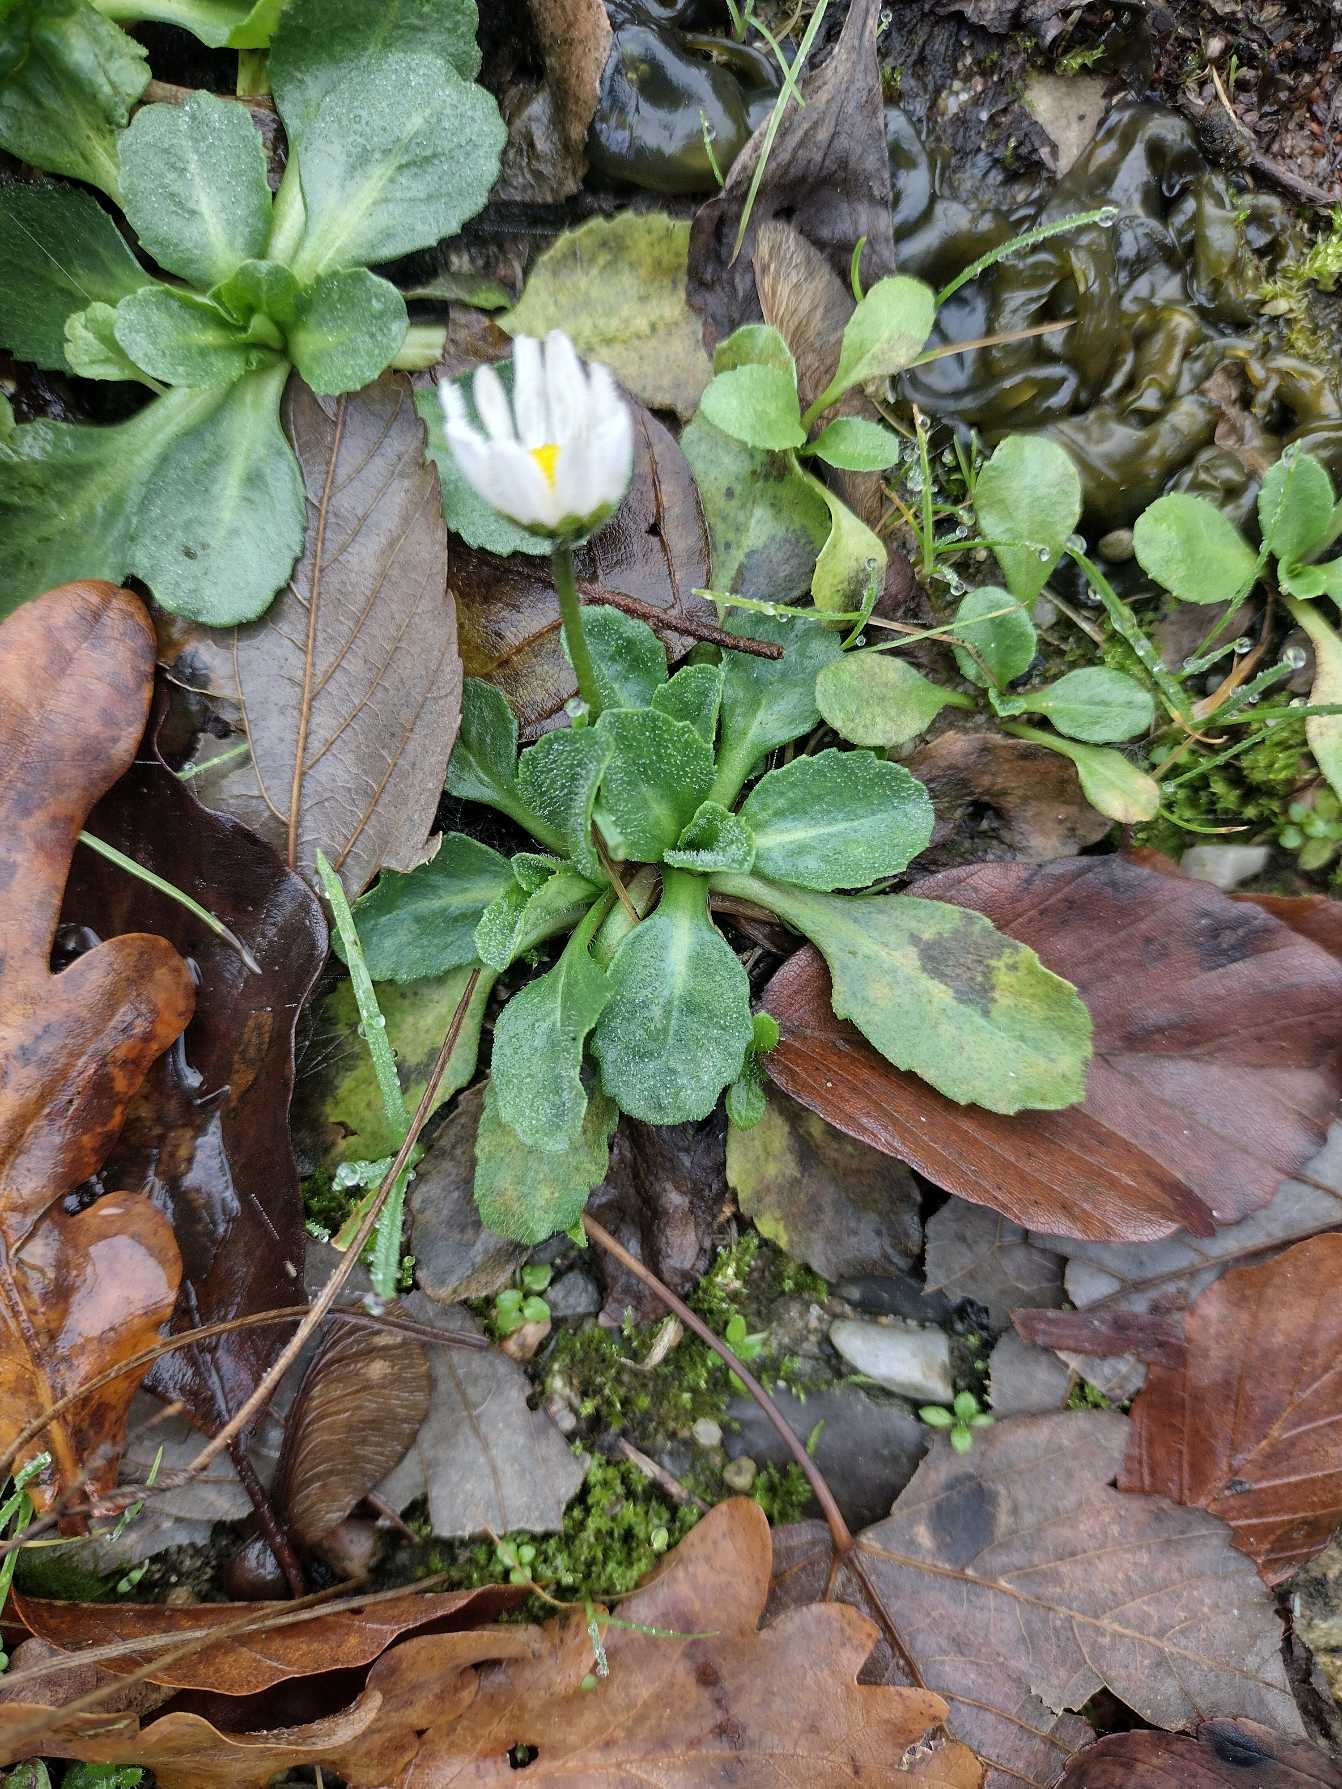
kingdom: Plantae
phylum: Tracheophyta
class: Magnoliopsida
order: Asterales
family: Asteraceae
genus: Bellis
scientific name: Bellis perennis
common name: Tusindfryd
